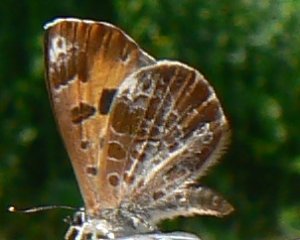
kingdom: Animalia
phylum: Arthropoda
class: Insecta
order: Lepidoptera
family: Lycaenidae
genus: Feniseca
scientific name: Feniseca tarquinius
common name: Harvester
